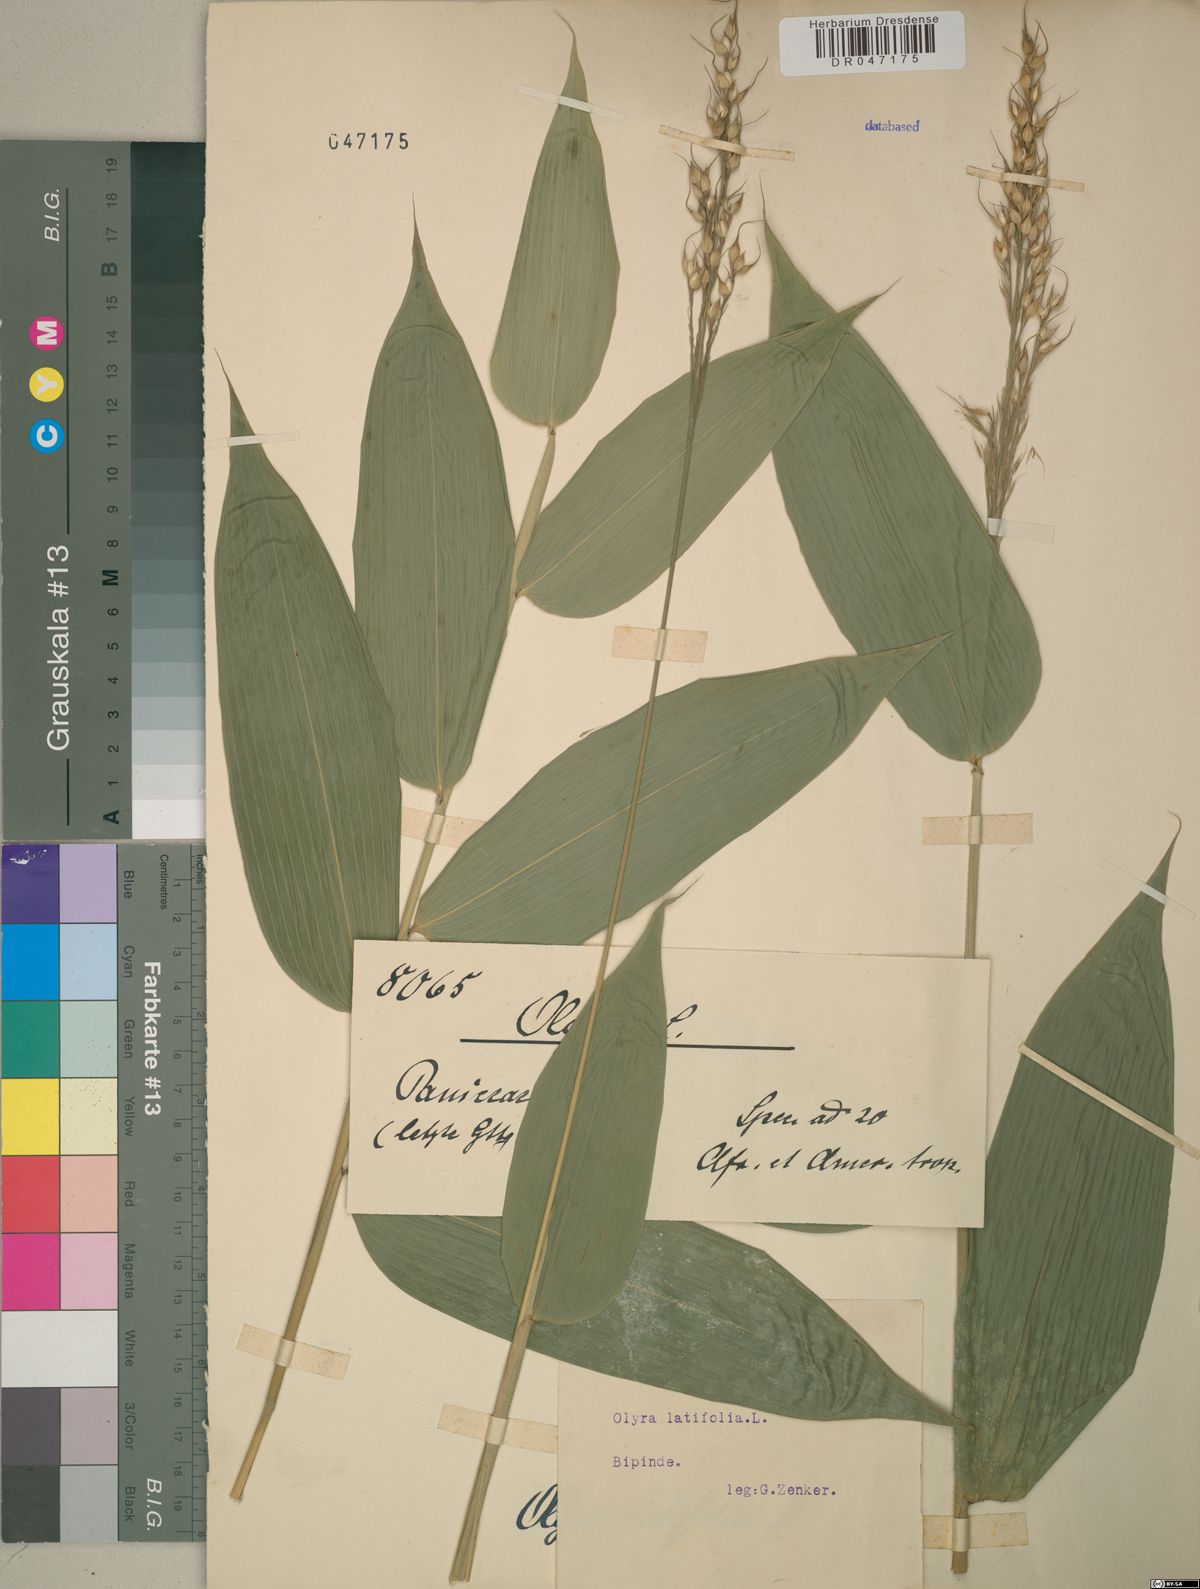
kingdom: Plantae
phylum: Tracheophyta
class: Liliopsida
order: Poales
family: Poaceae
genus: Olyra
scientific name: Olyra latifolia
